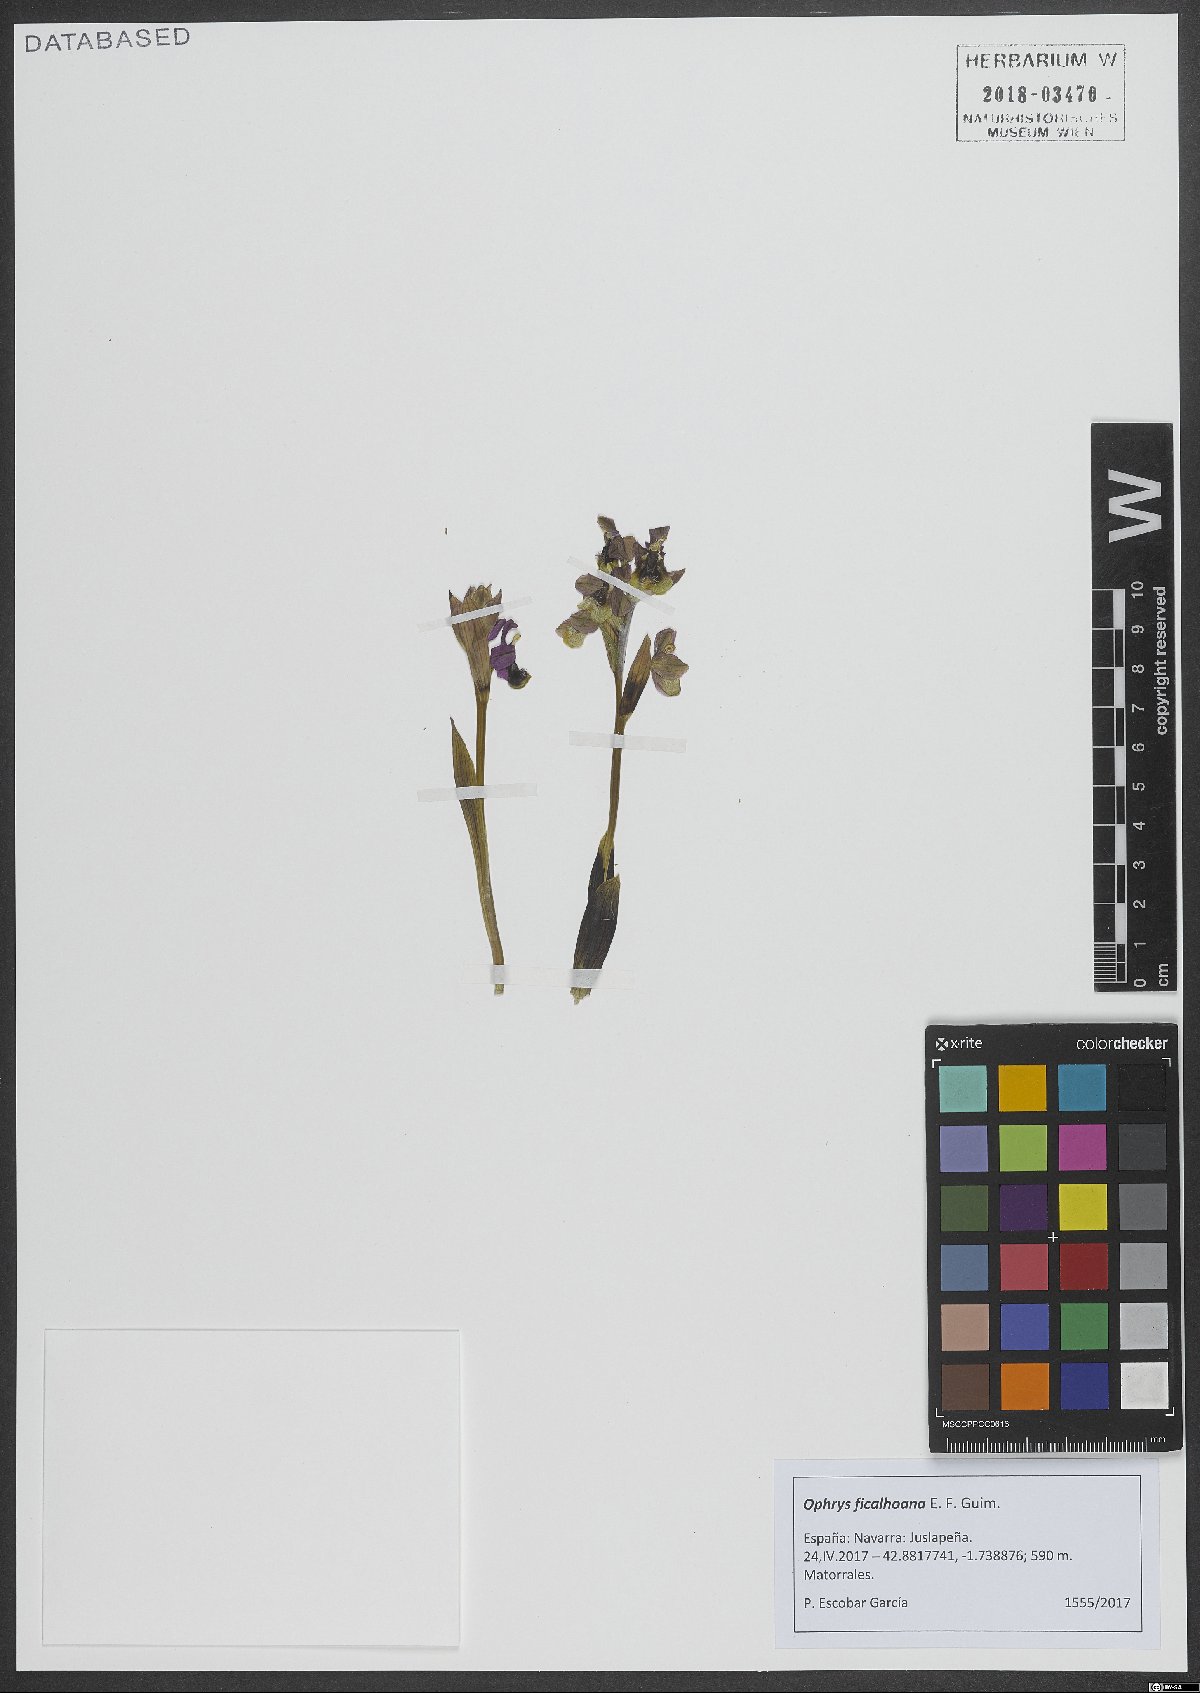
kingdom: Plantae
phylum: Tracheophyta
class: Liliopsida
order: Asparagales
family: Orchidaceae
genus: Ophrys
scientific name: Ophrys tenthredinifera
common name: Sawfly orchid
